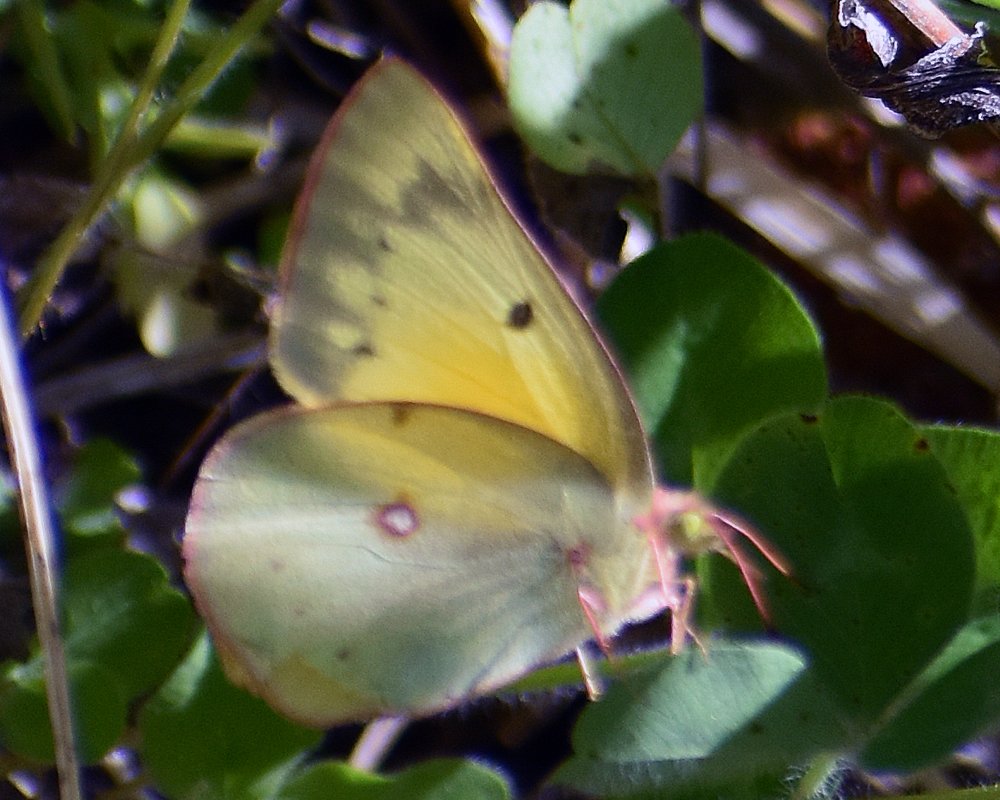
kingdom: Animalia
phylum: Arthropoda
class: Insecta
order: Lepidoptera
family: Pieridae
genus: Colias
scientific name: Colias eurytheme
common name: Orange Sulphur
